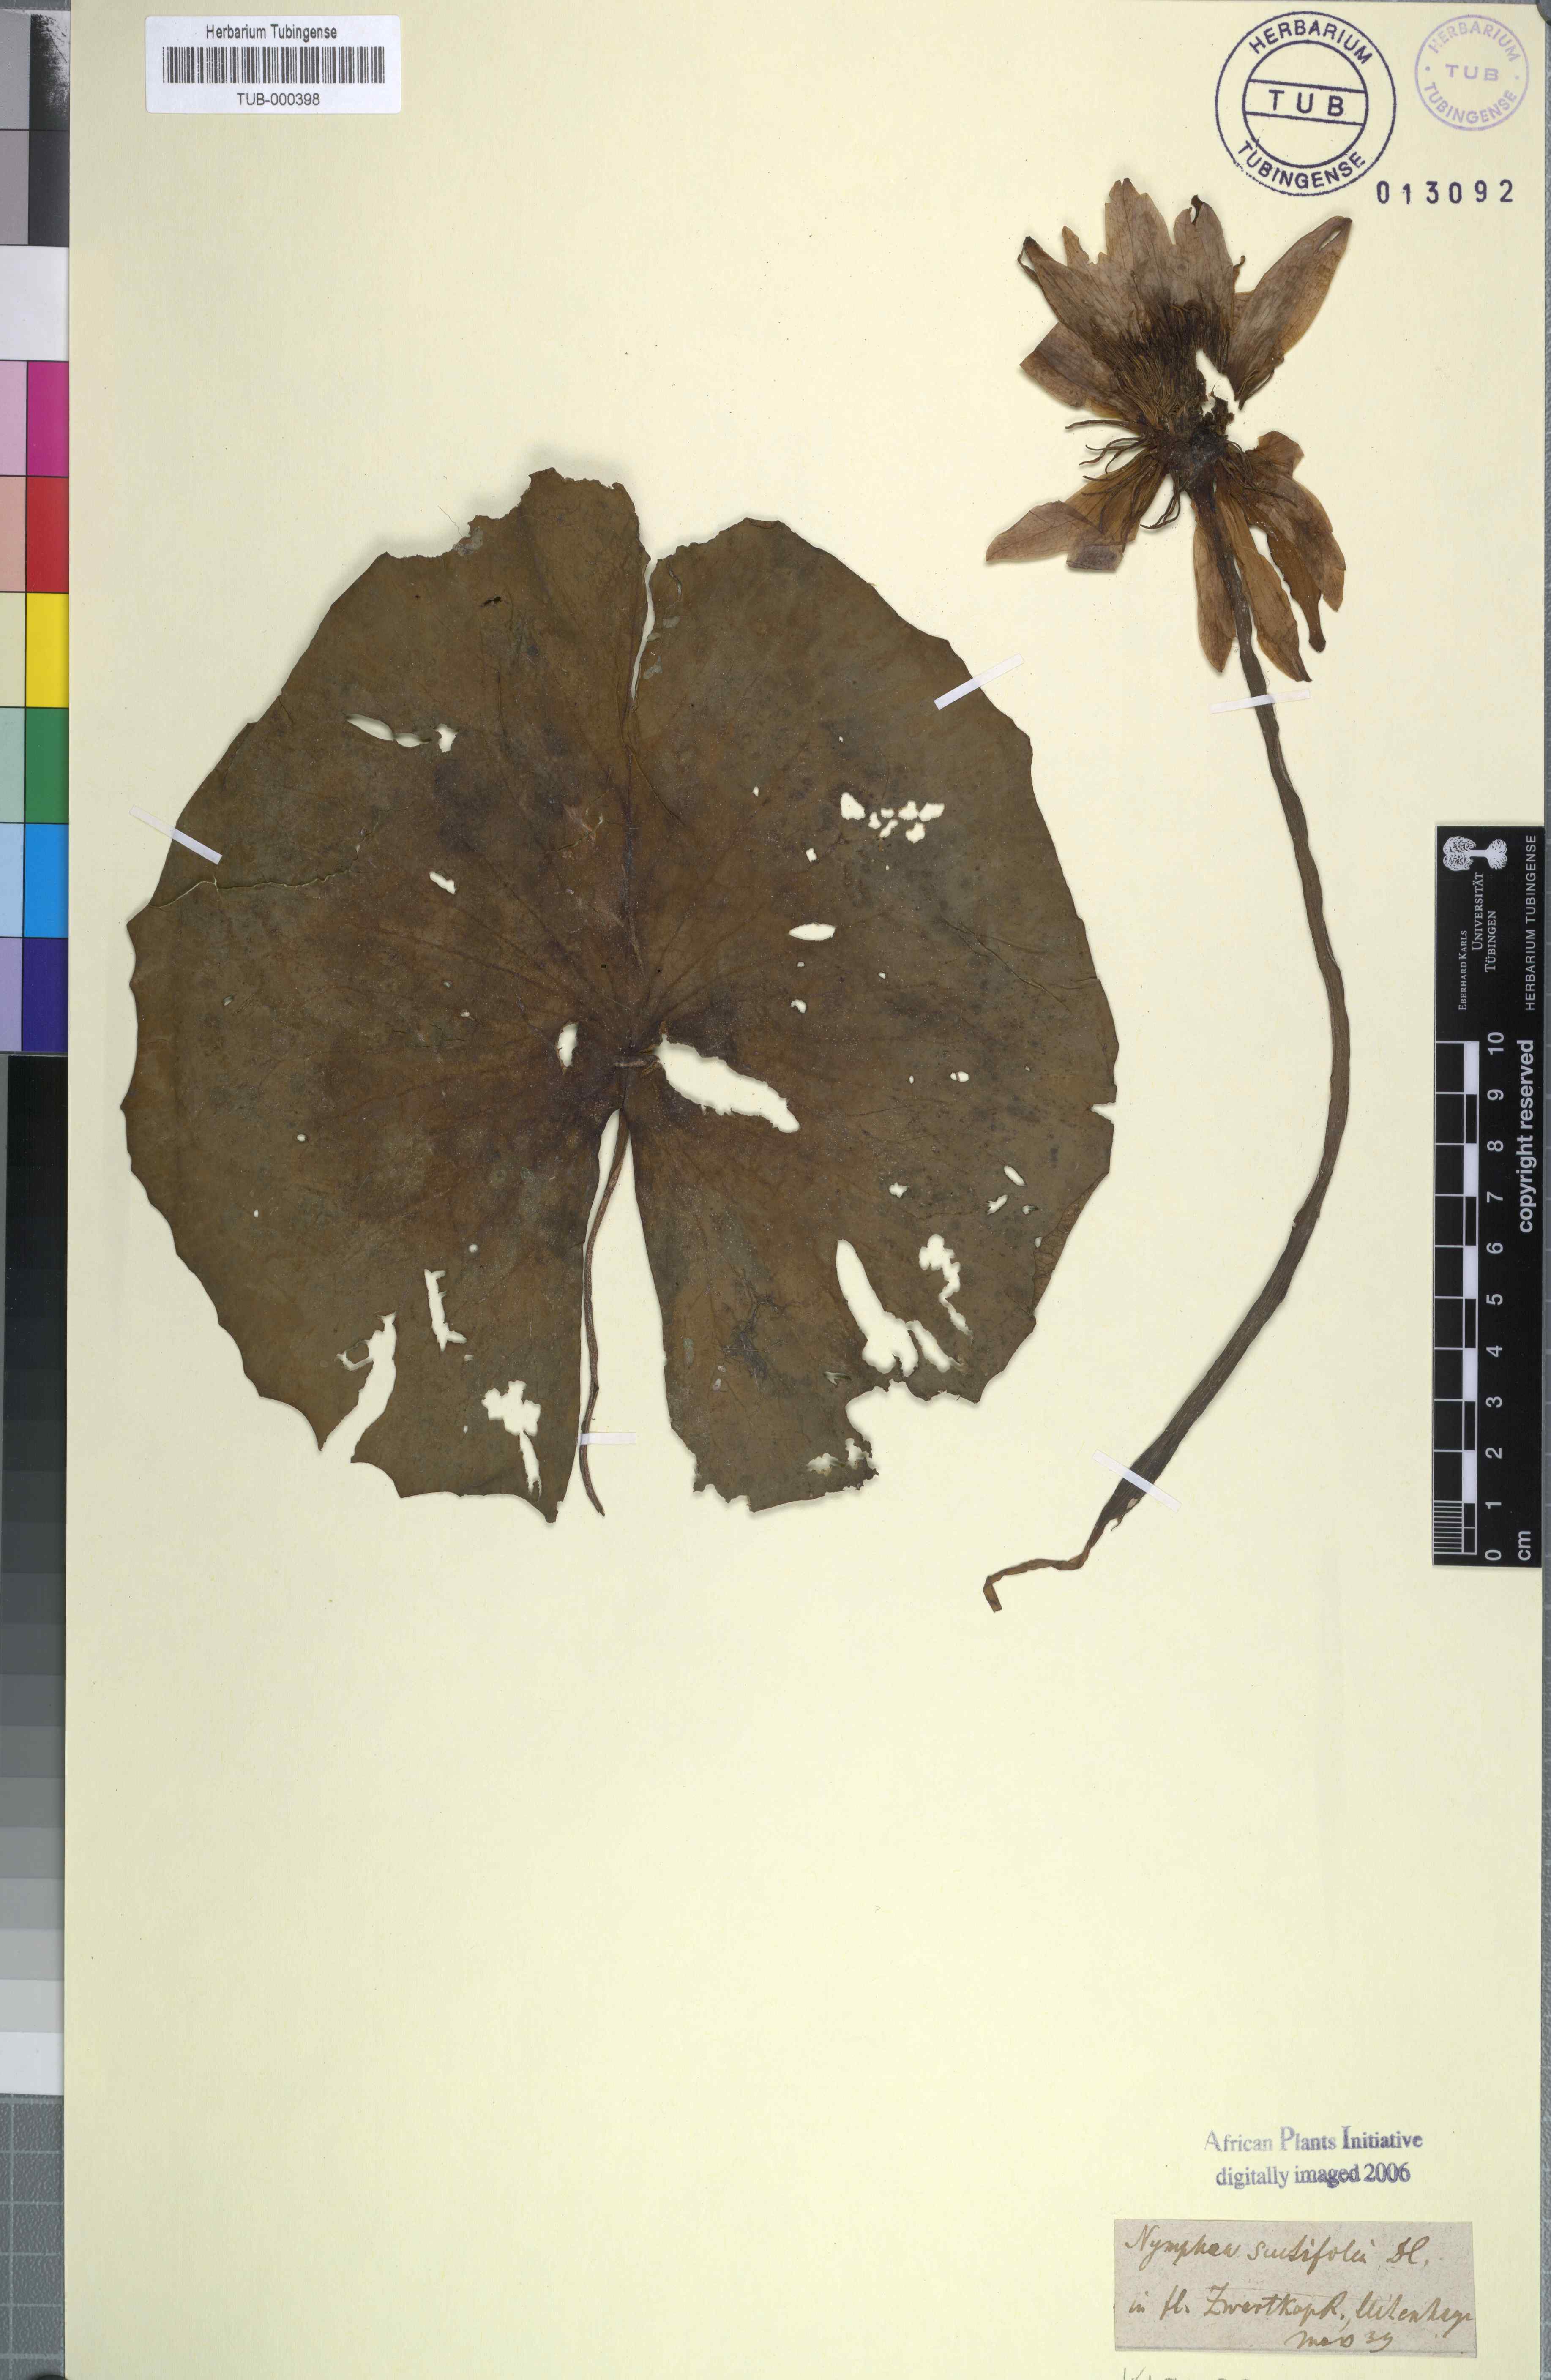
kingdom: Plantae
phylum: Tracheophyta
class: Magnoliopsida
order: Nymphaeales
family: Nymphaeaceae
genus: Nymphaea
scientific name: Nymphaea nouchali
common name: Blue lotus
